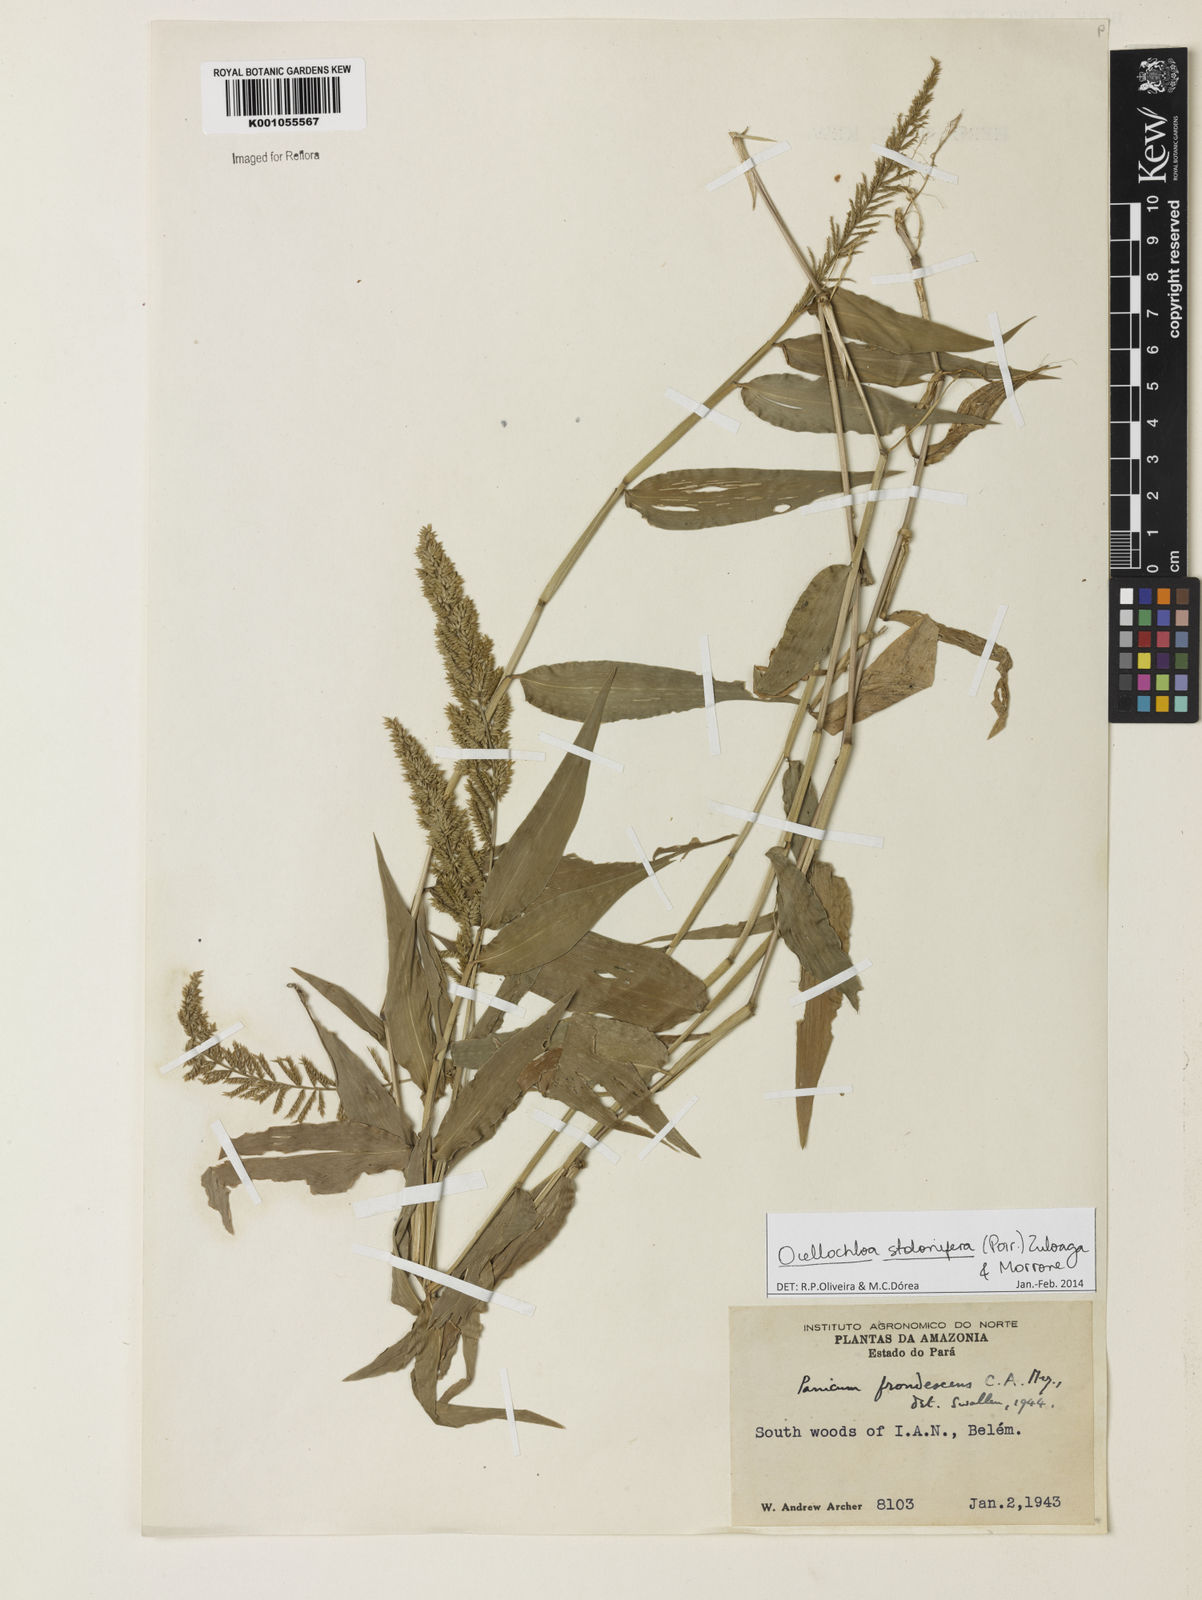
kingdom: Plantae
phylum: Tracheophyta
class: Liliopsida
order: Poales
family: Poaceae
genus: Ocellochloa
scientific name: Ocellochloa stolonifera
